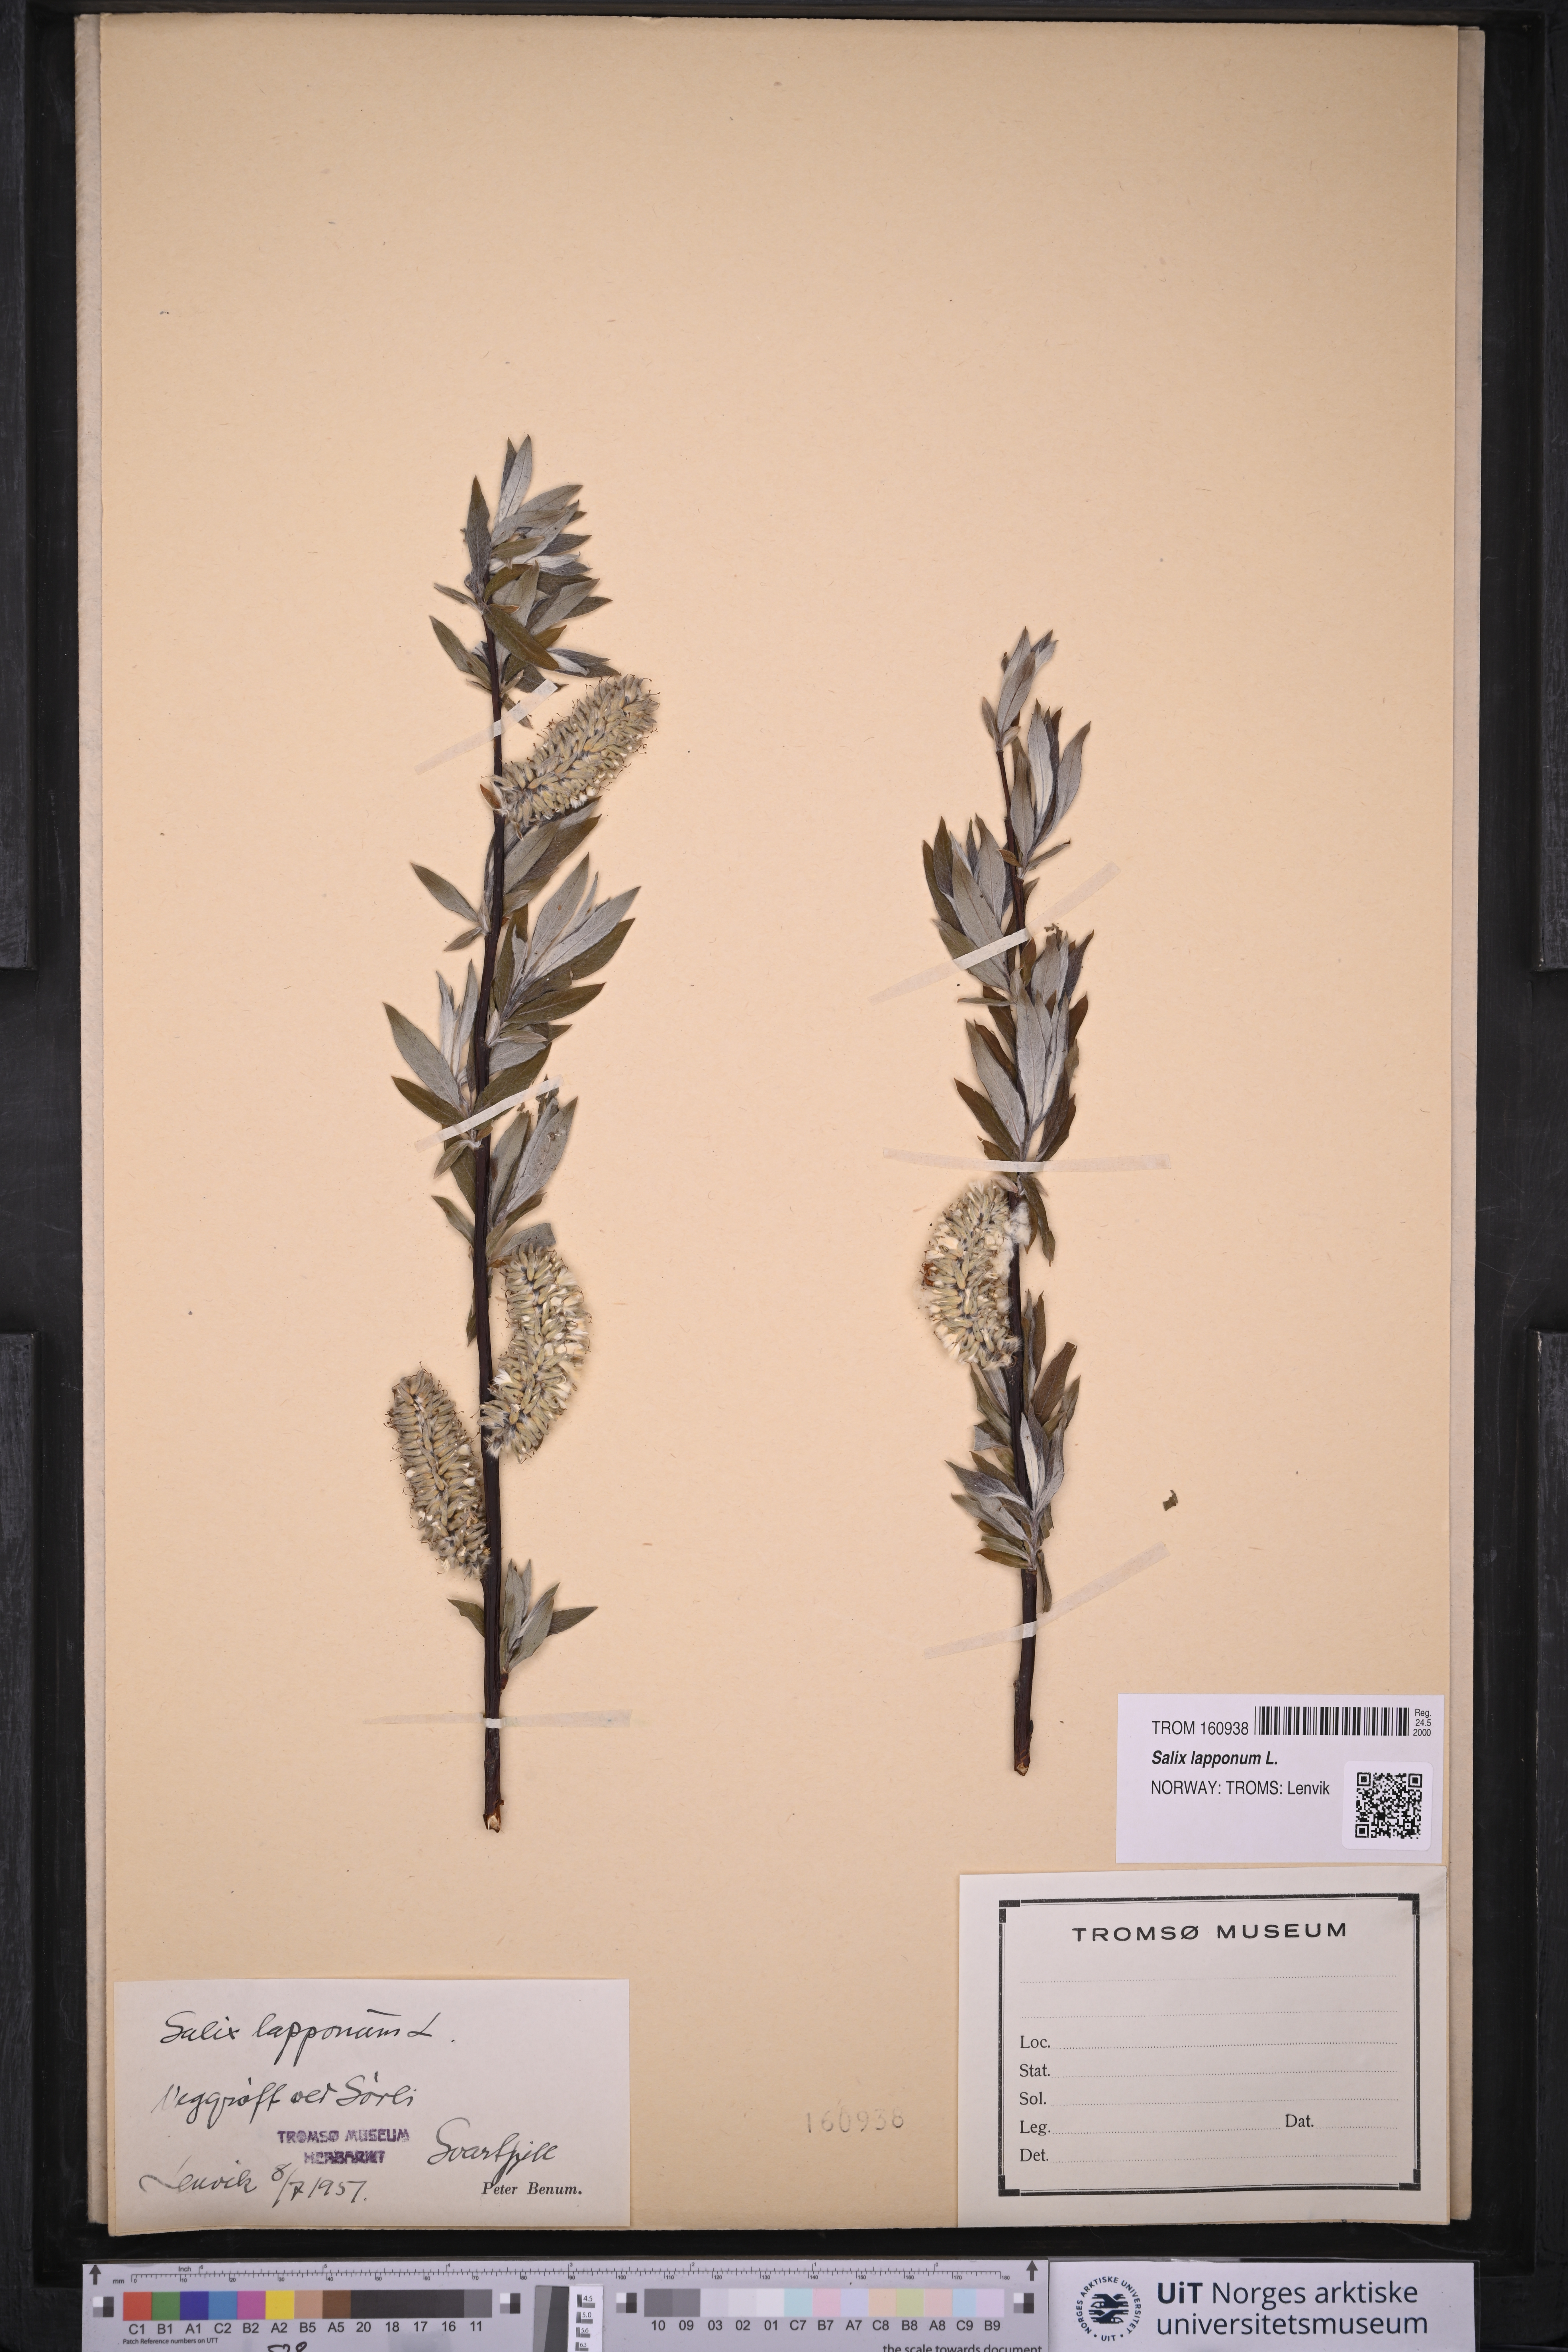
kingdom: Plantae
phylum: Tracheophyta
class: Magnoliopsida
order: Malpighiales
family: Salicaceae
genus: Salix
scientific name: Salix lapponum
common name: Downy willow
